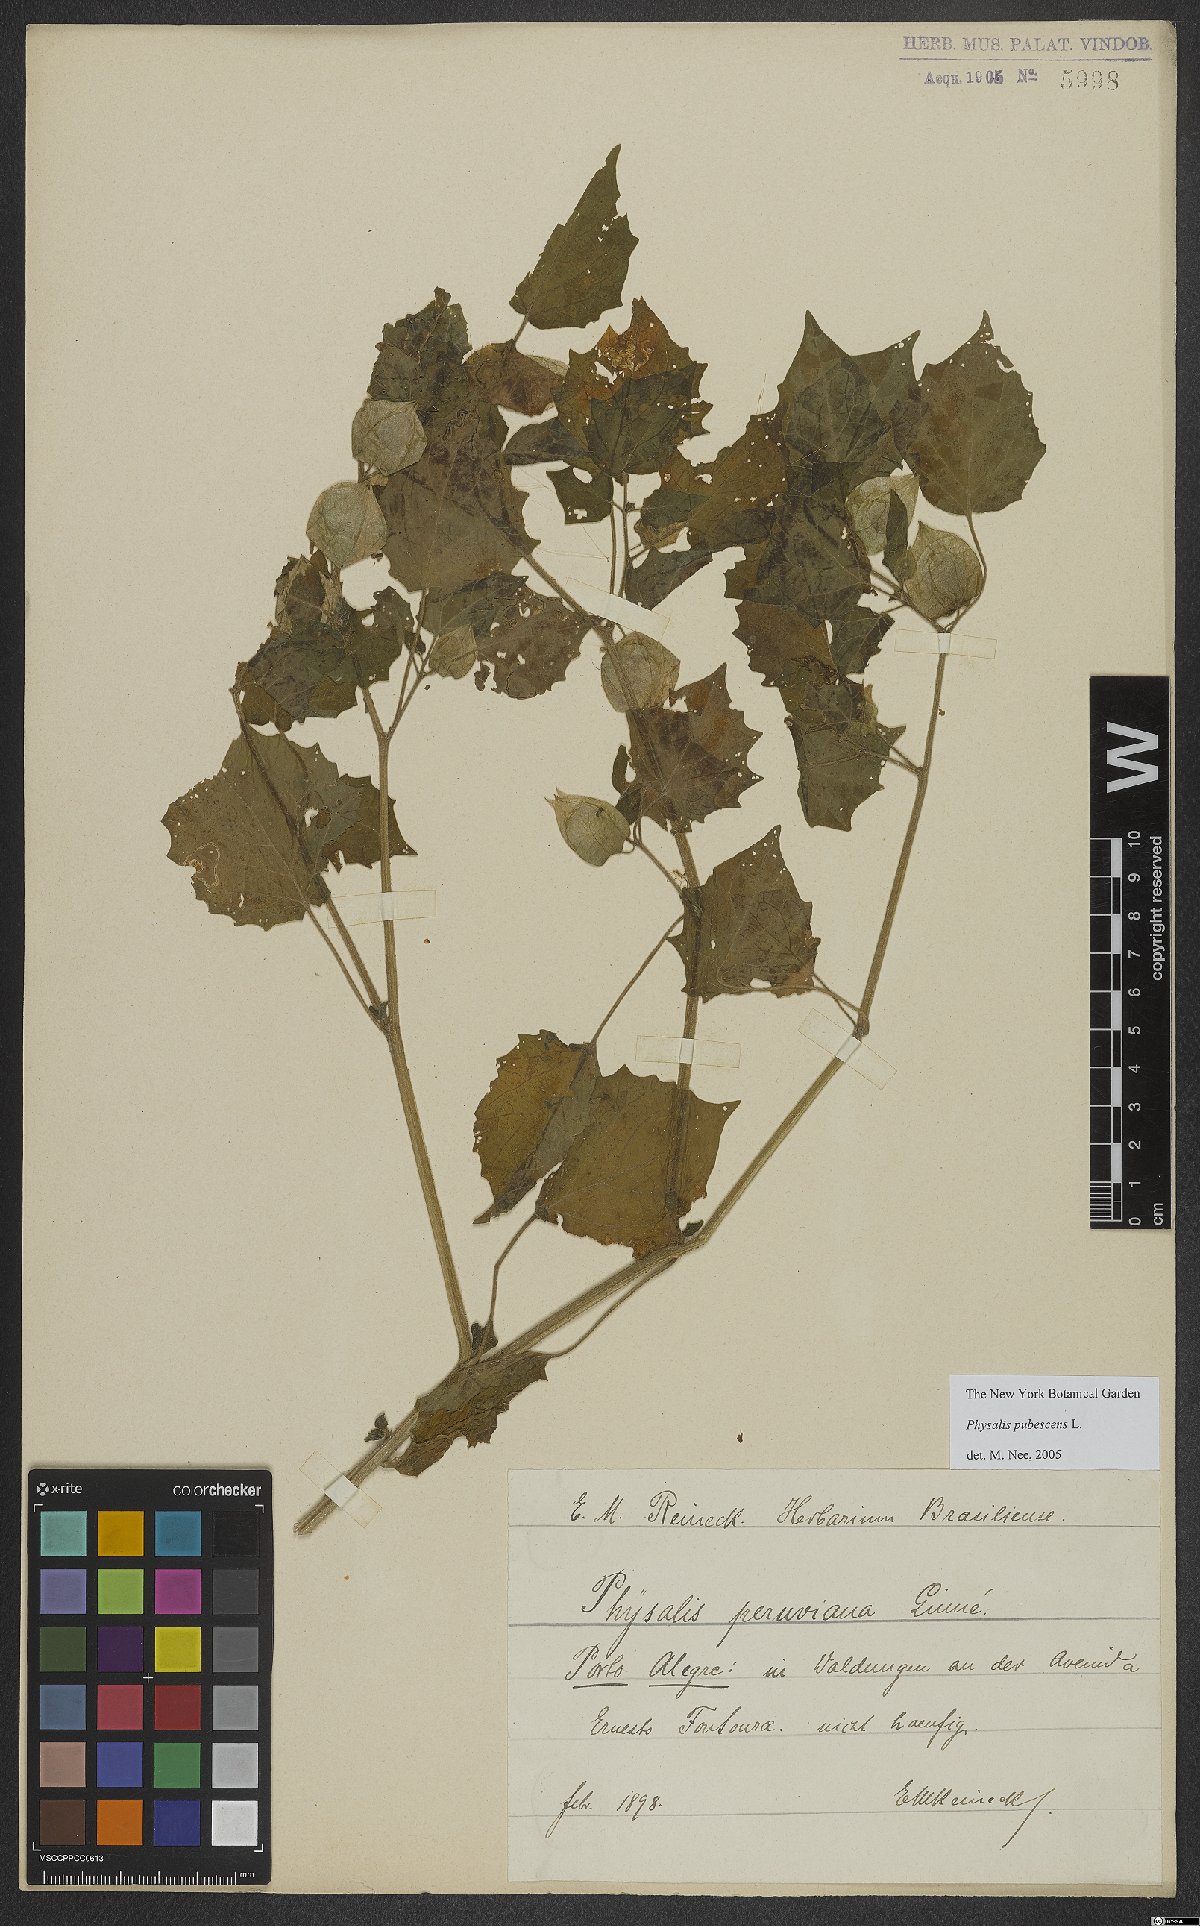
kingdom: Plantae
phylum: Tracheophyta
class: Magnoliopsida
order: Solanales
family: Solanaceae
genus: Physalis
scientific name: Physalis pubescens
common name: Downy ground-cherry
